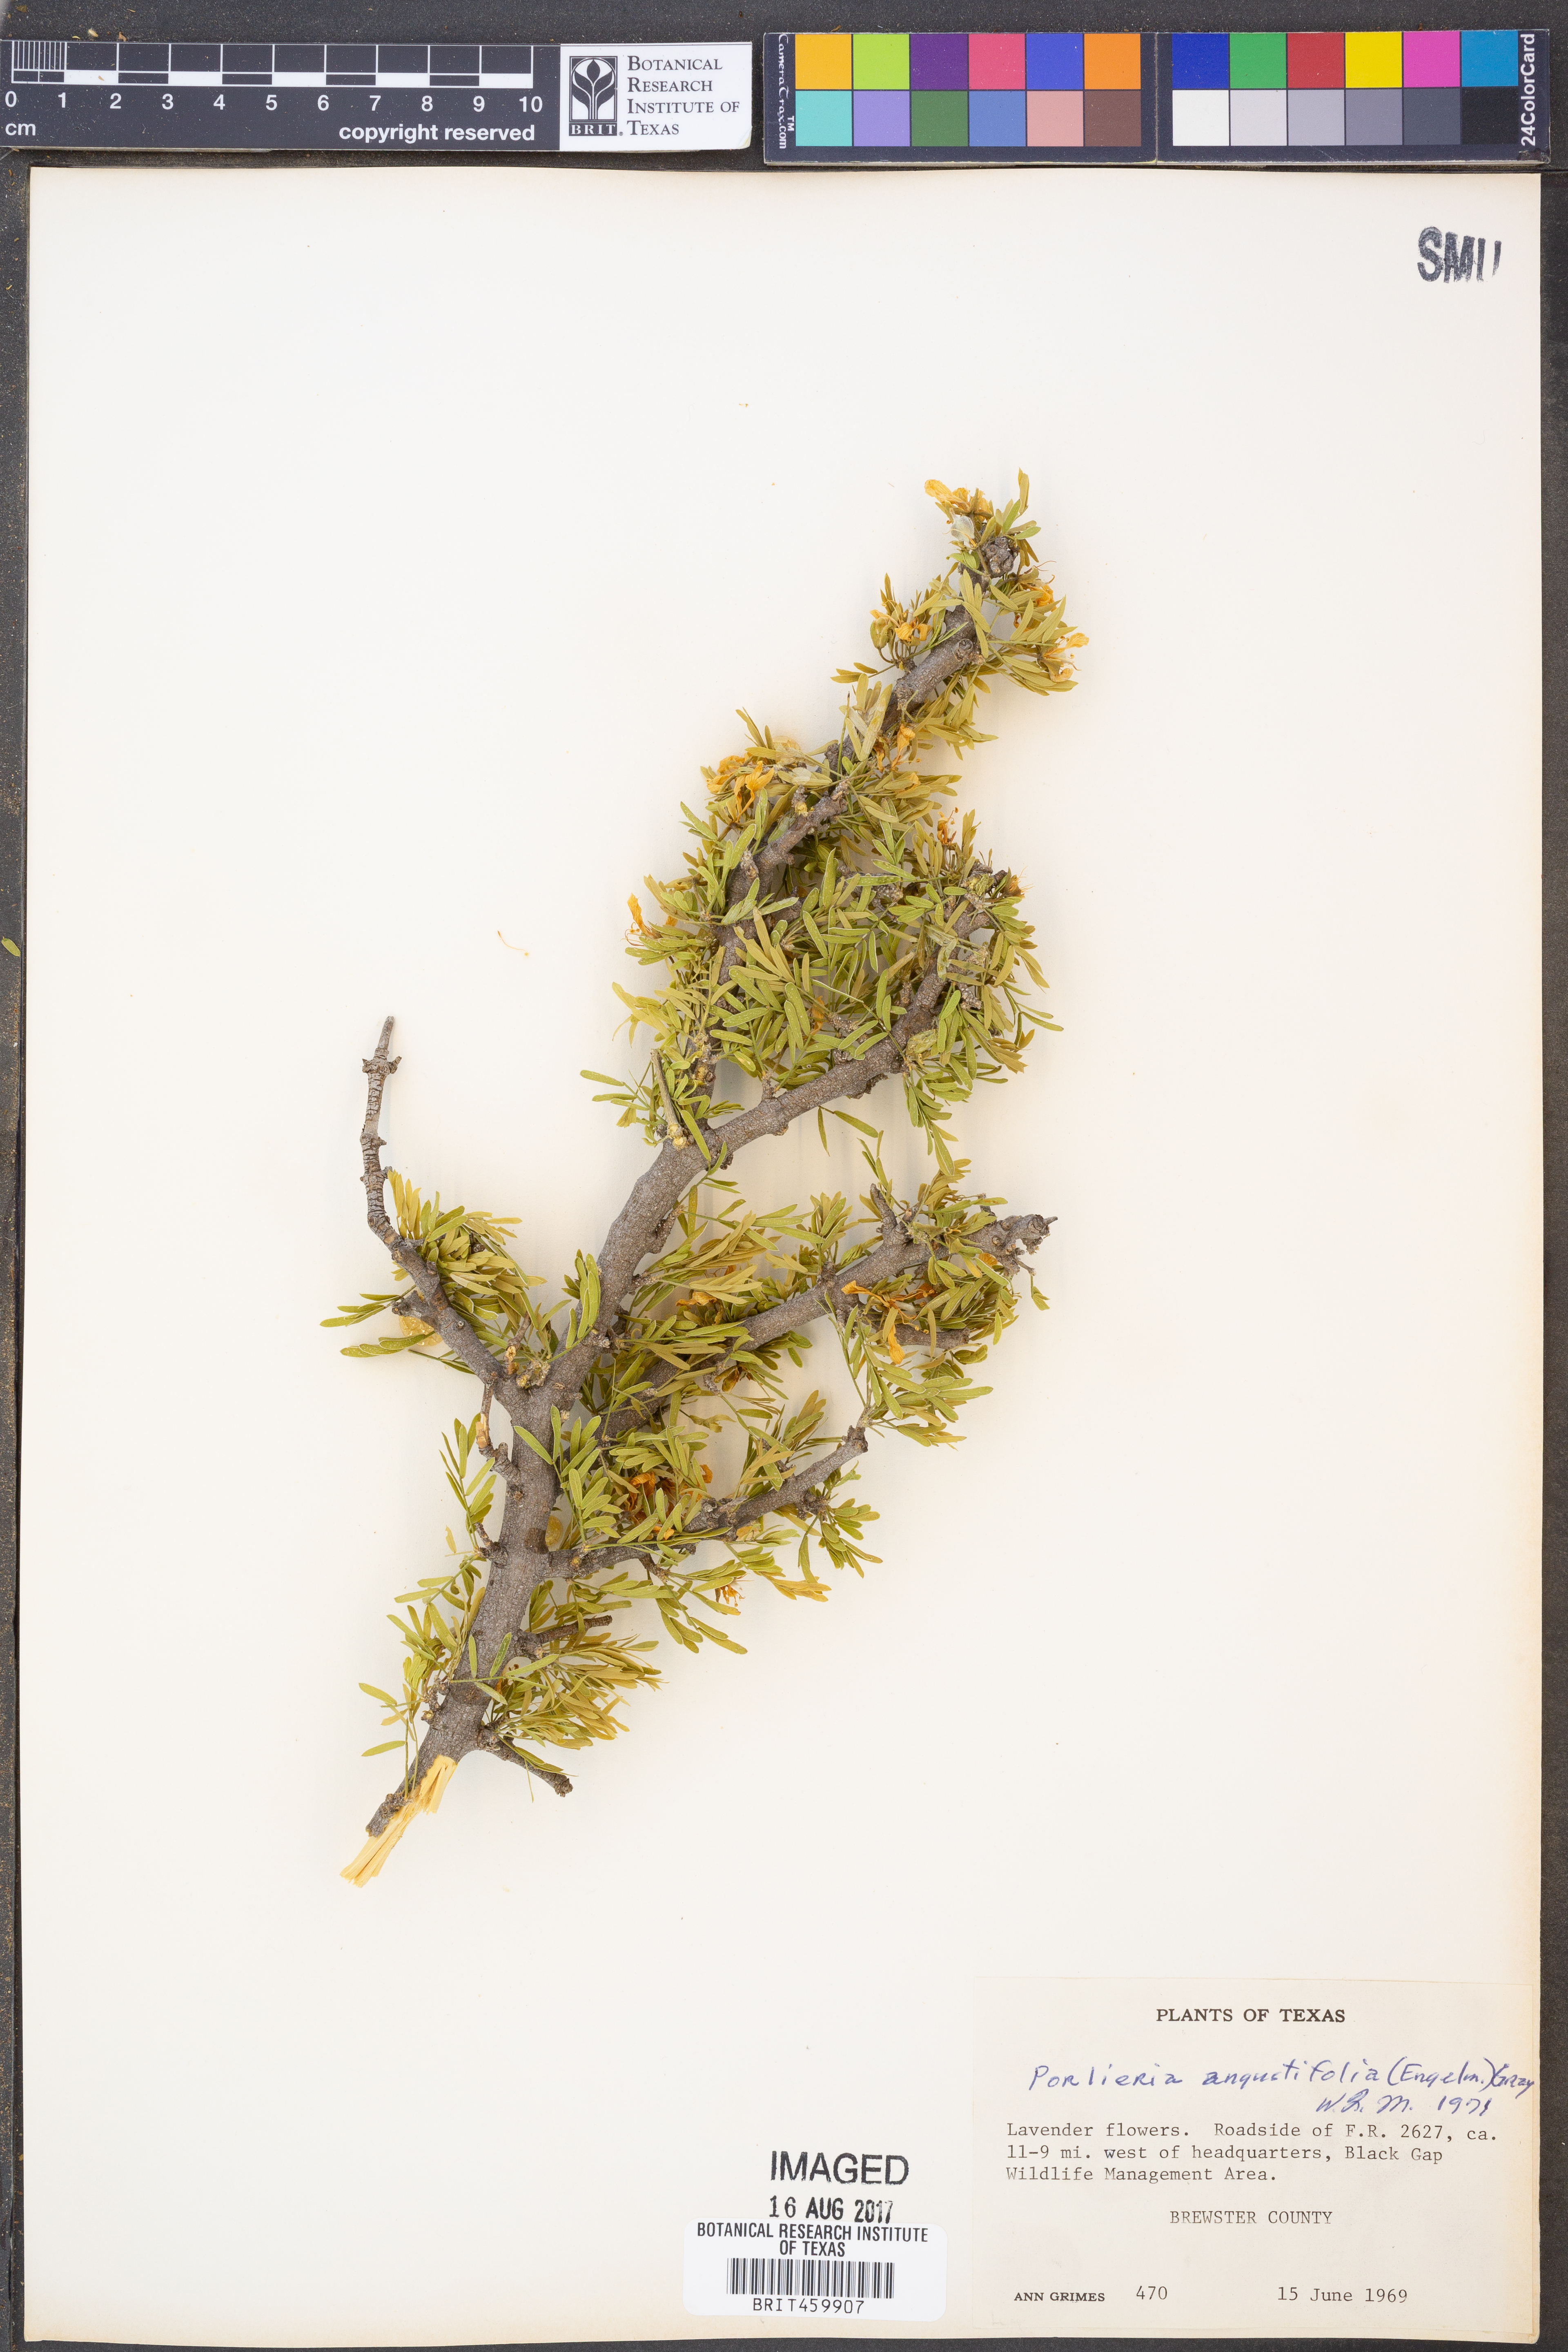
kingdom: Plantae
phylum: Tracheophyta
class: Magnoliopsida
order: Zygophyllales
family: Zygophyllaceae
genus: Porlieria
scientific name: Porlieria angustifolia
